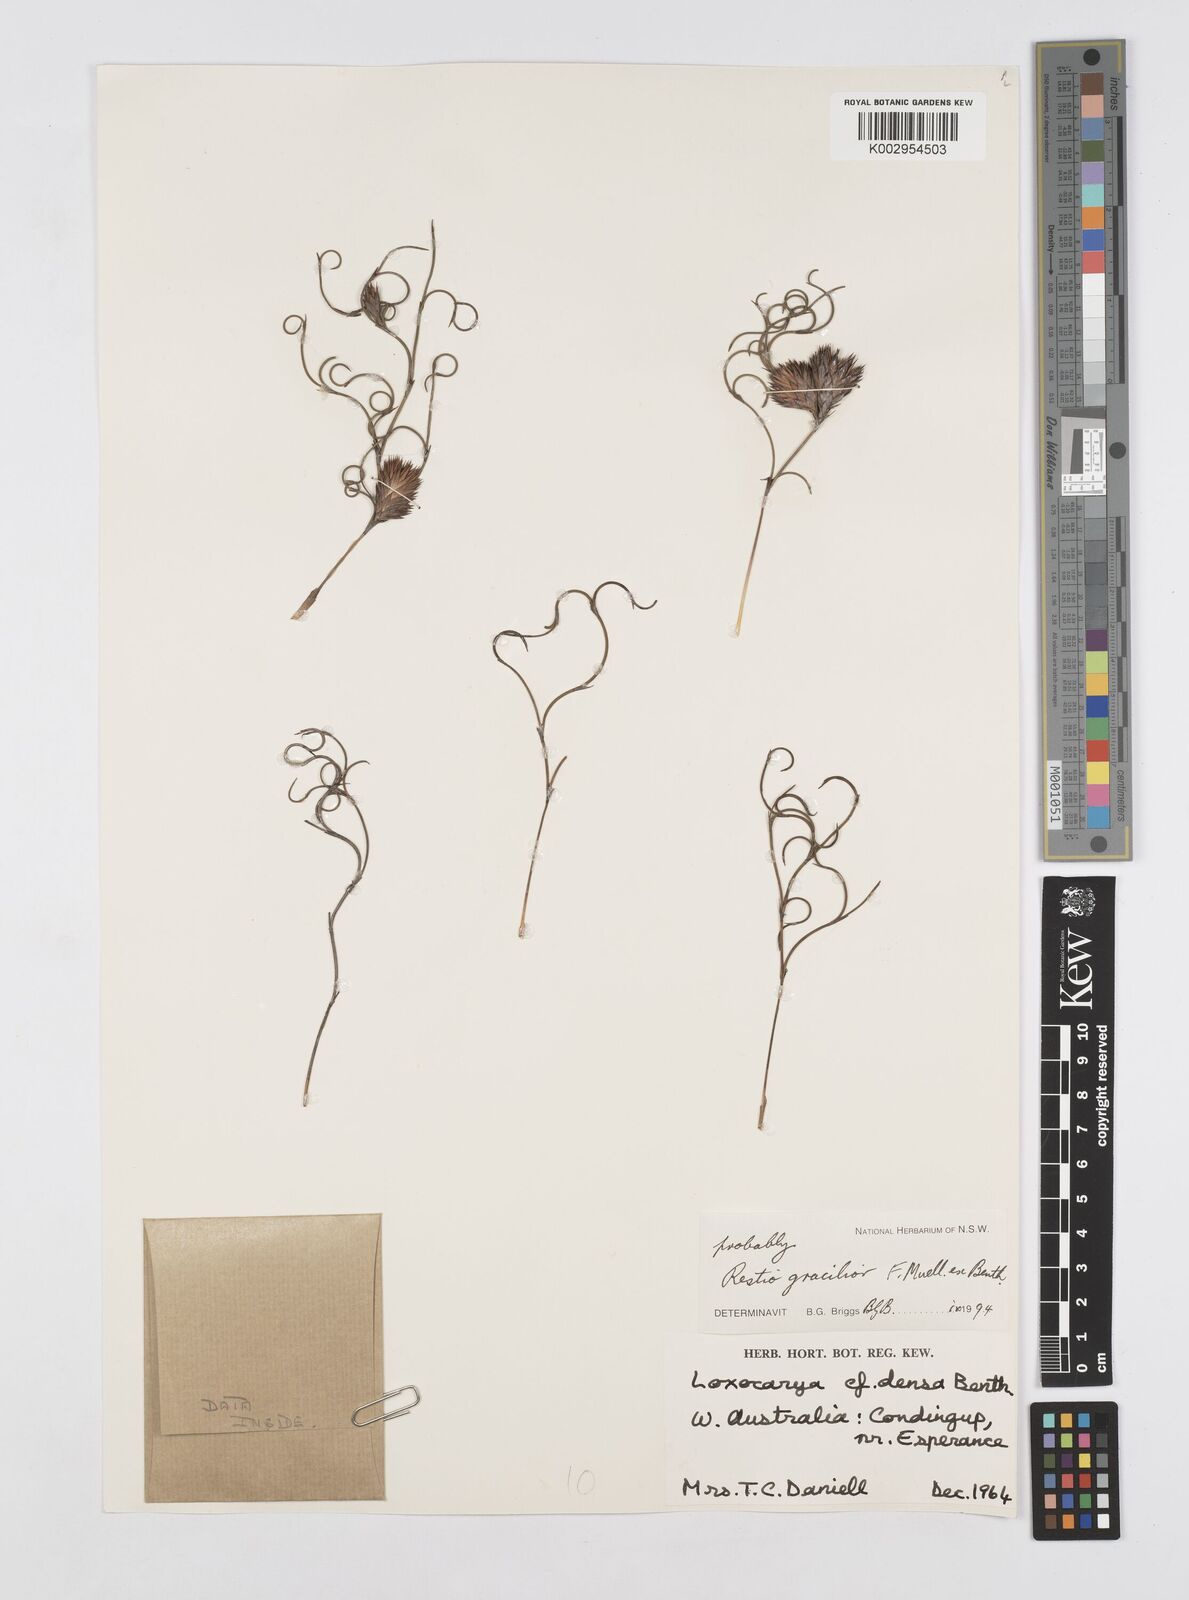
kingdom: Plantae
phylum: Tracheophyta
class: Liliopsida
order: Poales
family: Restionaceae
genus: Chordifex
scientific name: Chordifex gracilior
